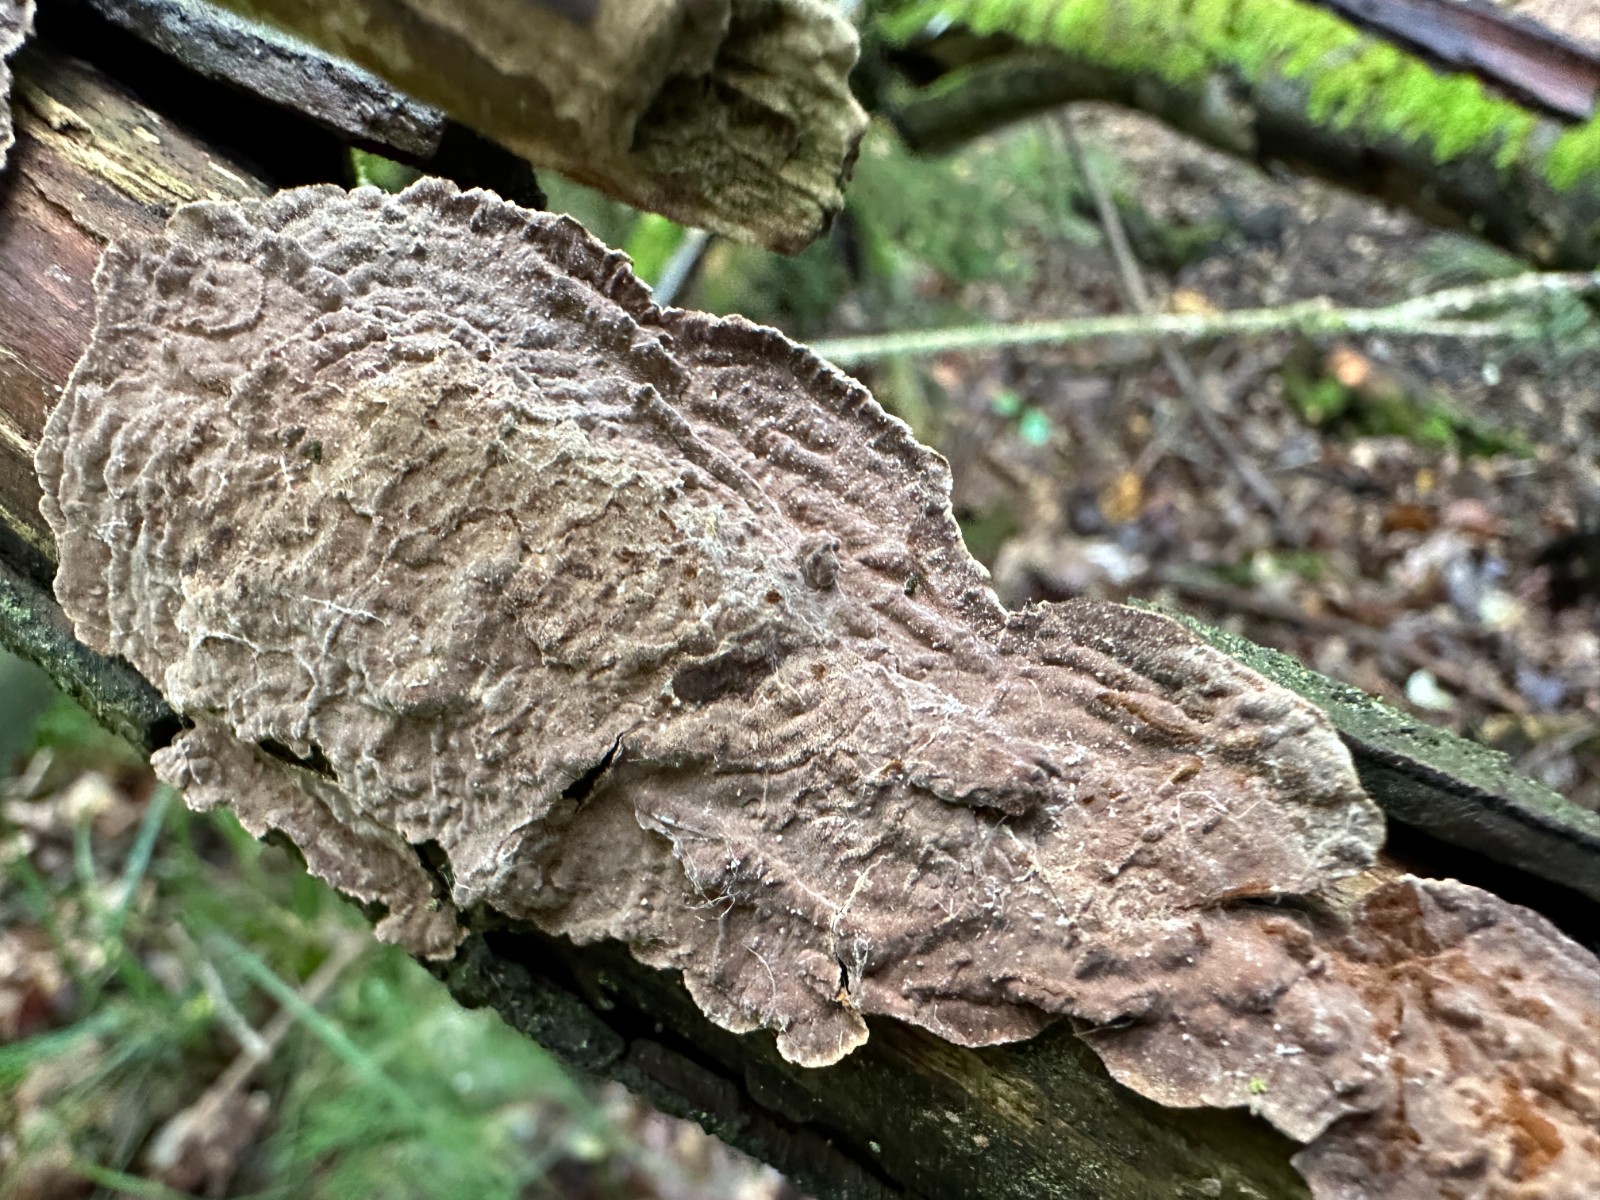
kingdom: Fungi
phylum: Basidiomycota
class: Agaricomycetes
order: Hymenochaetales
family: Hymenochaetaceae
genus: Hydnoporia
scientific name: Hydnoporia tabacina
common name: tobaksbrun ruslædersvamp
